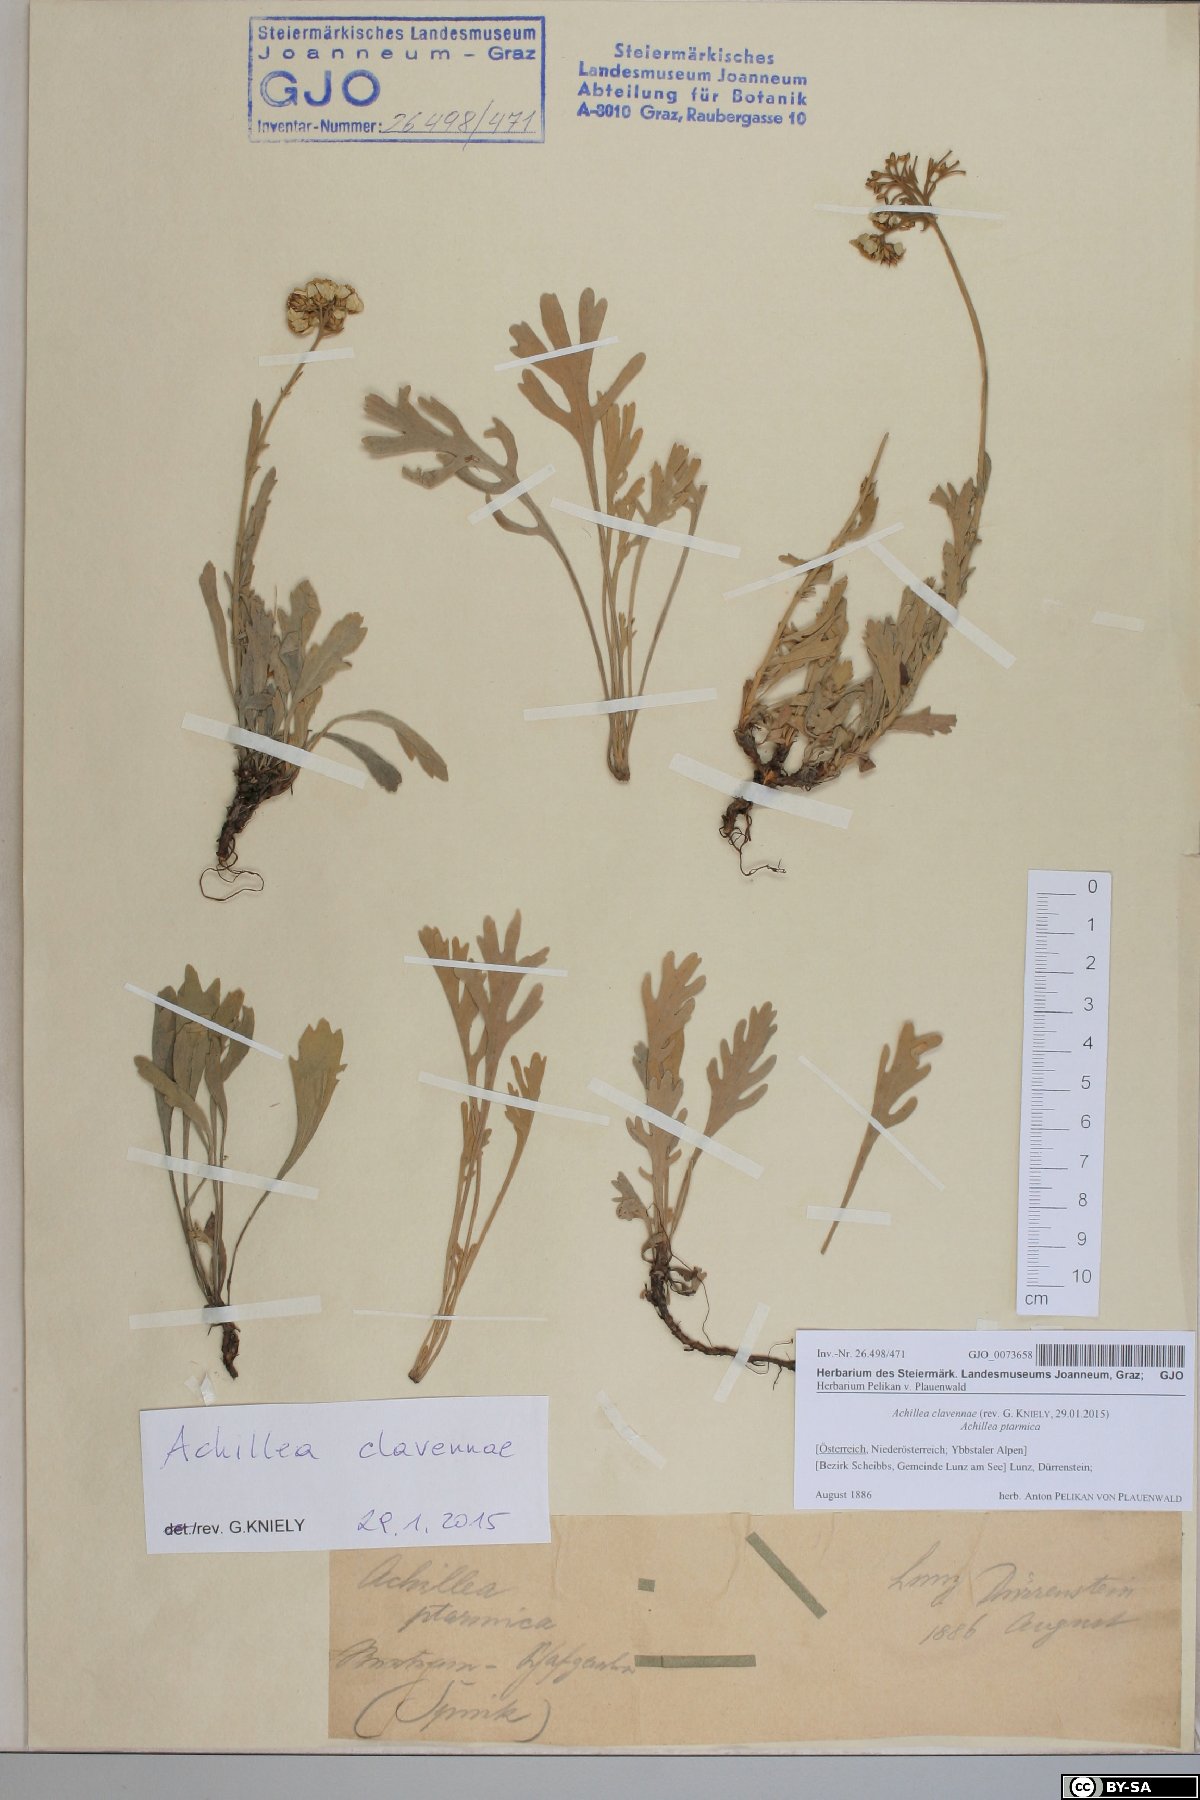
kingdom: Plantae
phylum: Tracheophyta
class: Magnoliopsida
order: Asterales
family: Asteraceae
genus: Achillea
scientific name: Achillea clavennae
